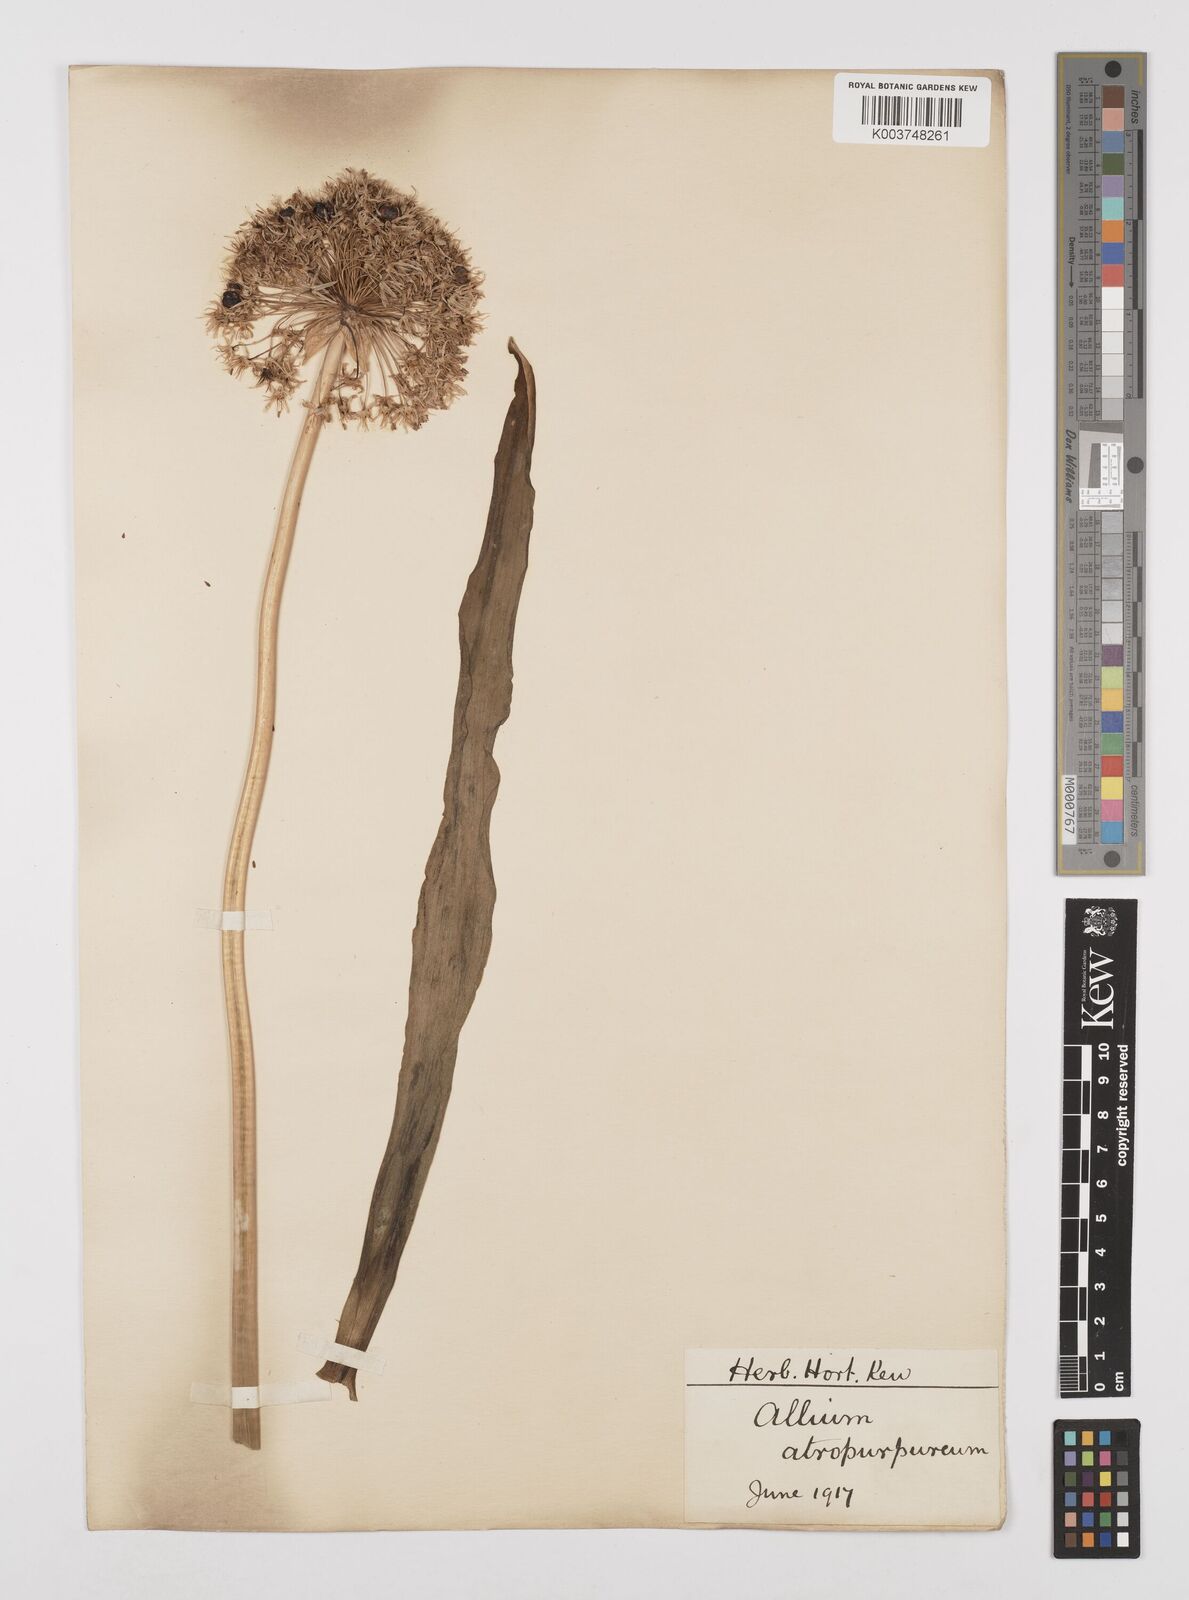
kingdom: Plantae
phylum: Tracheophyta
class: Liliopsida
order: Asparagales
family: Amaryllidaceae
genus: Allium
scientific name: Allium atropurpureum
